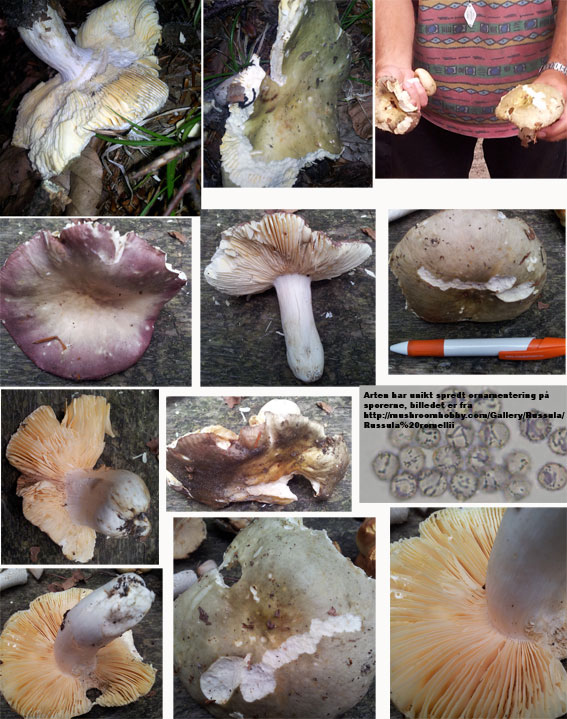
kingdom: Fungi
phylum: Basidiomycota
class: Agaricomycetes
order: Russulales
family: Russulaceae
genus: Russula
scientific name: Russula romellii
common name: romells skørhat
